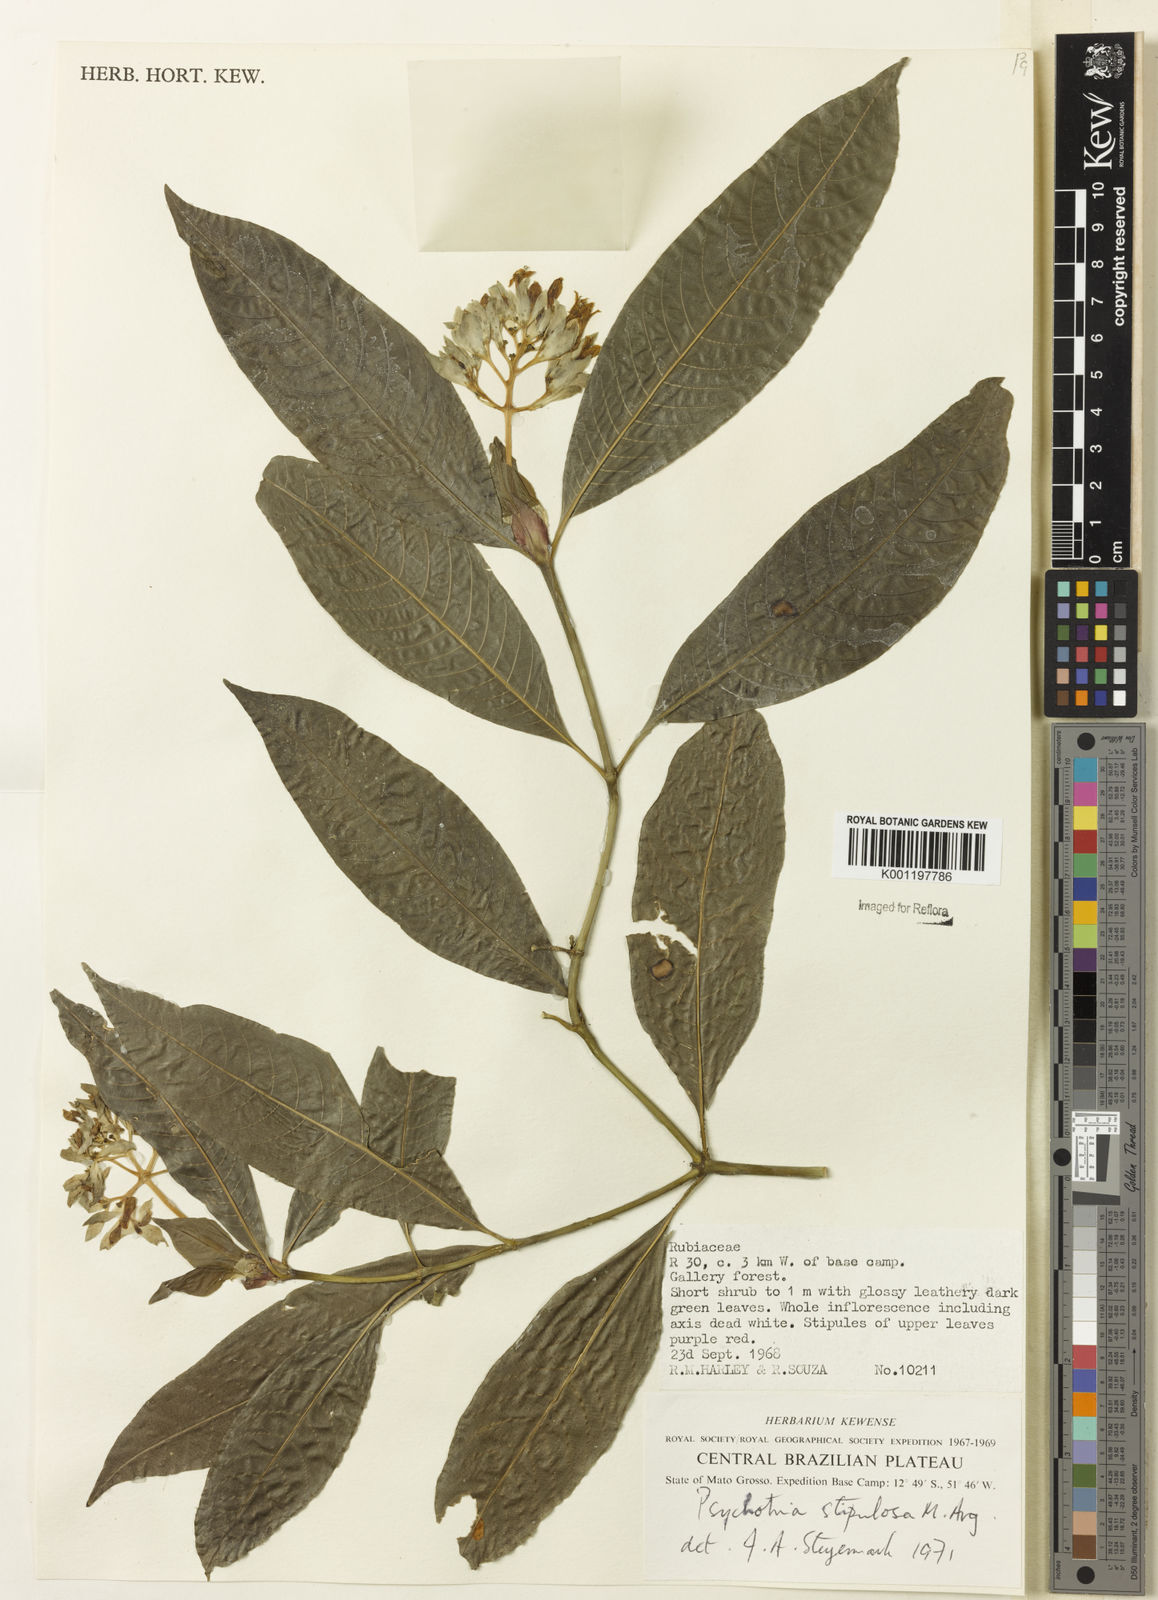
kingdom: Plantae
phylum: Tracheophyta
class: Magnoliopsida
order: Gentianales
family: Rubiaceae
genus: Psychotria
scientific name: Psychotria
